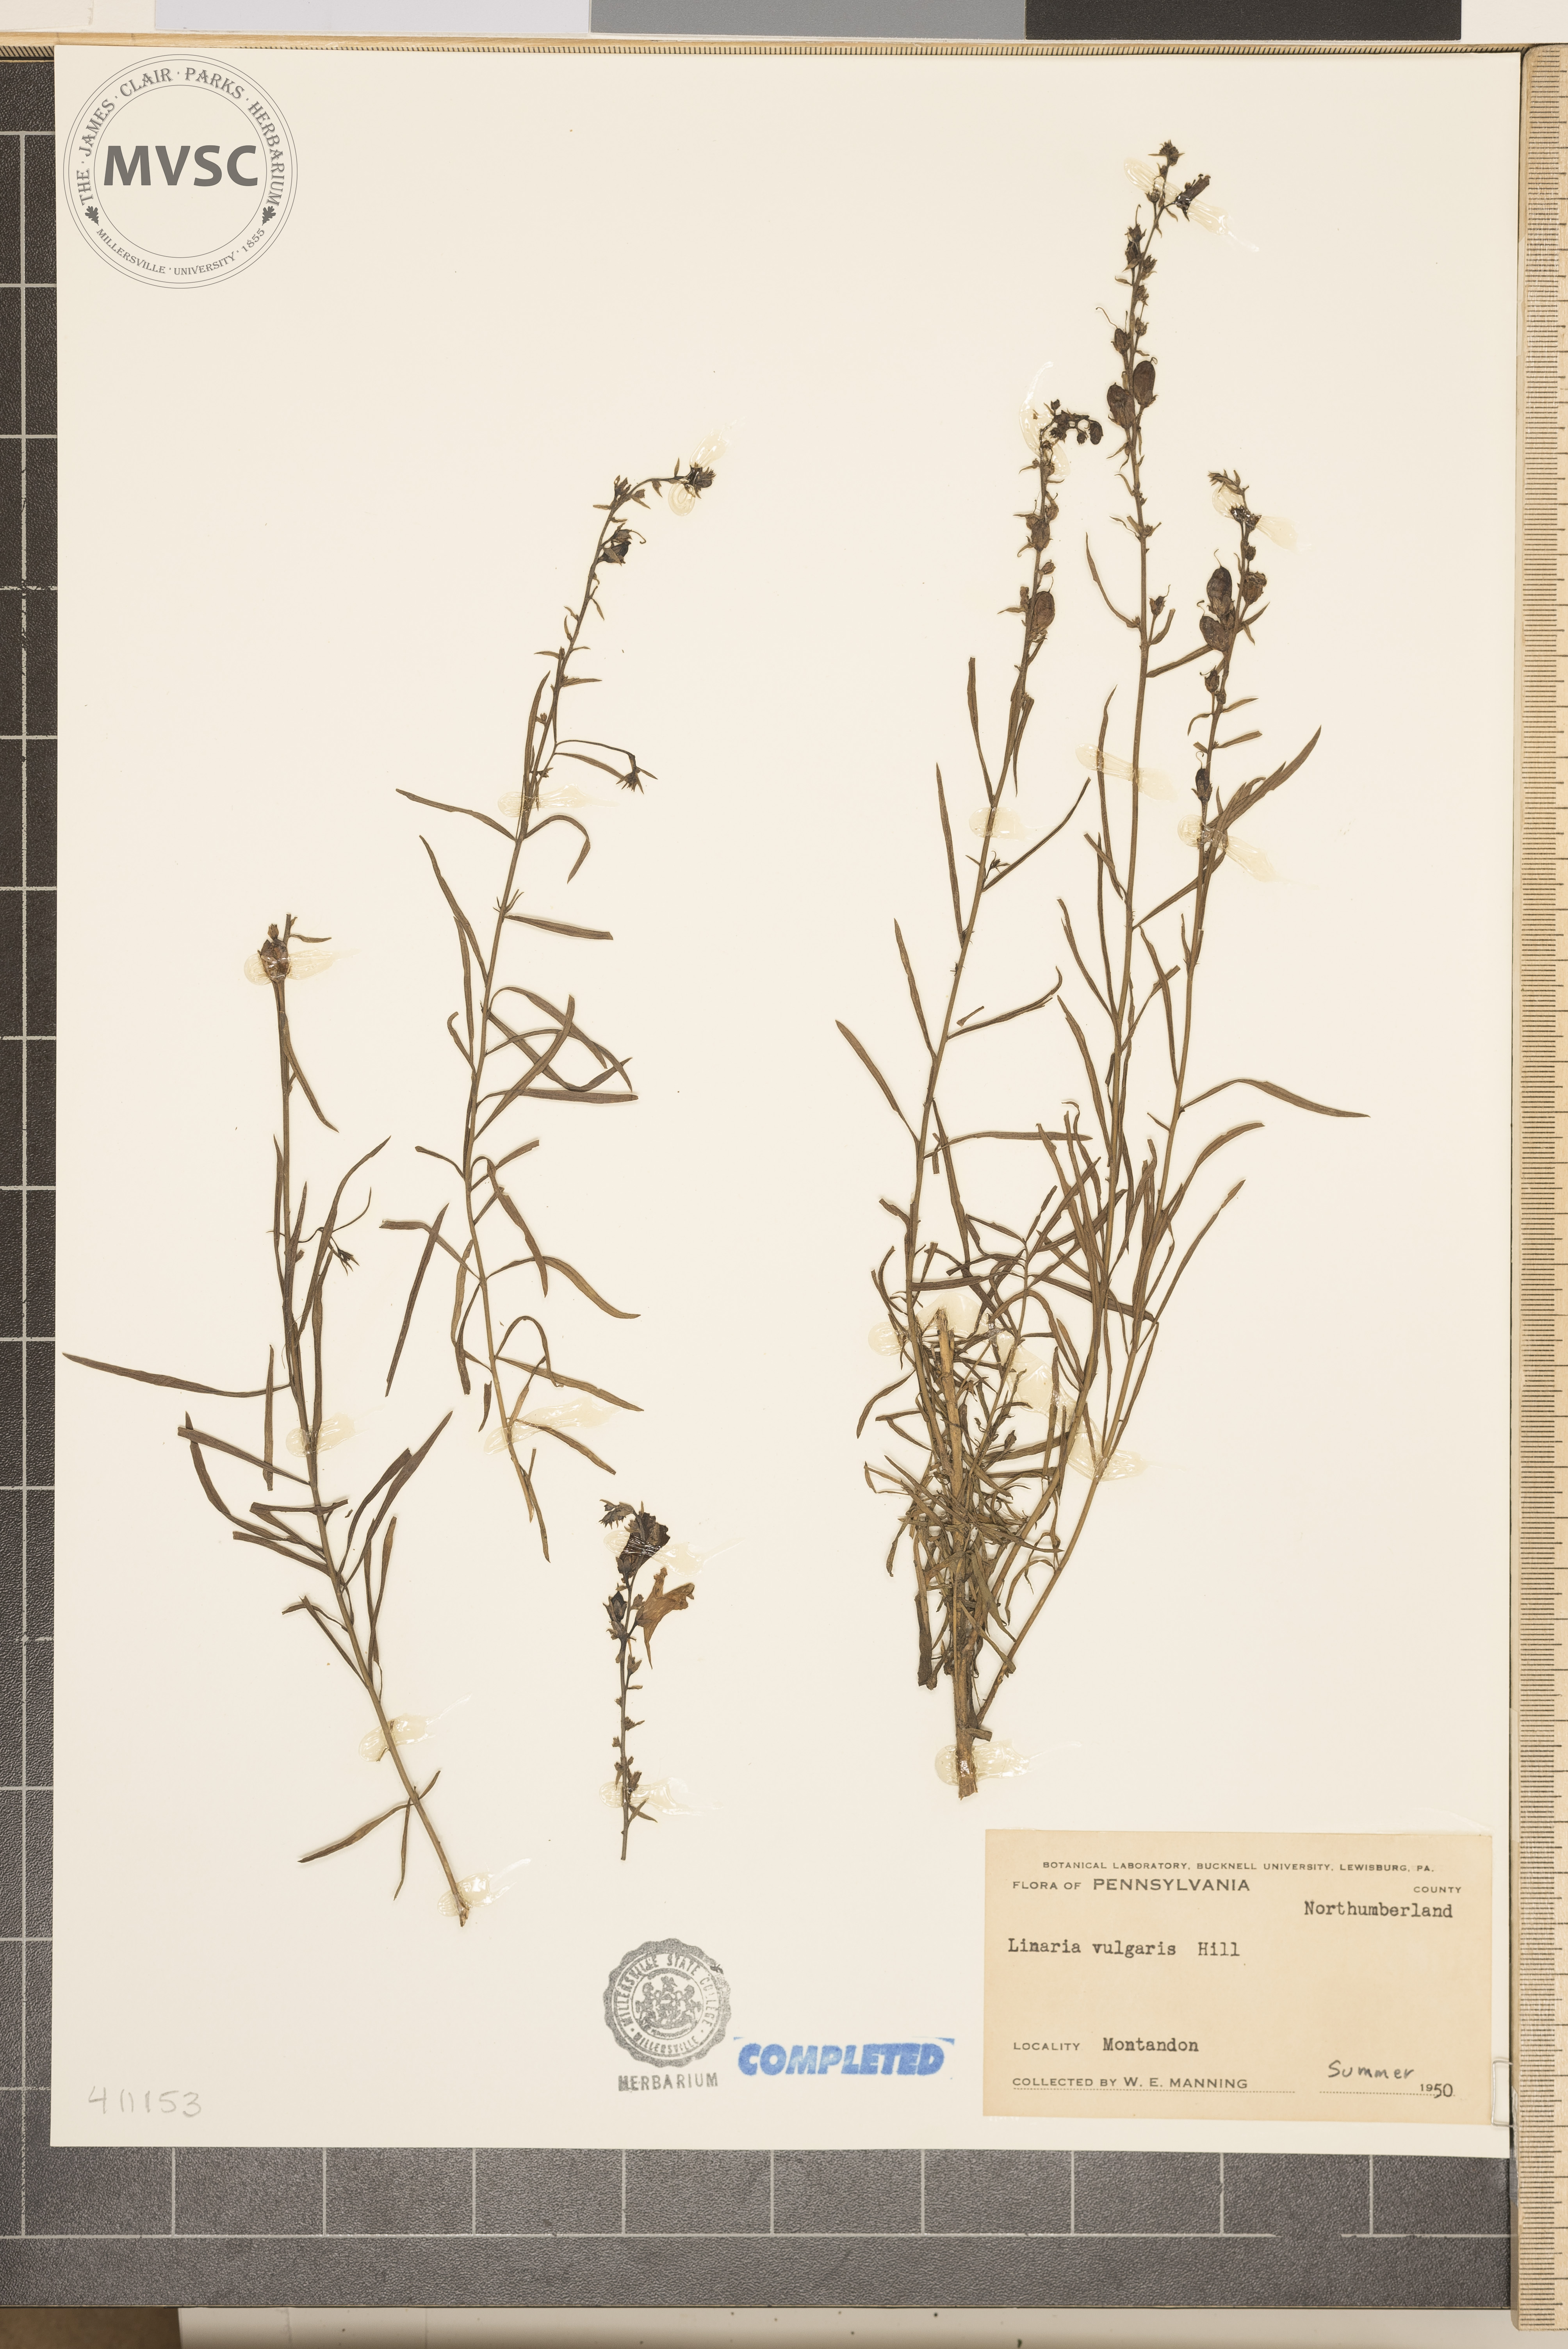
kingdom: Plantae
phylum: Tracheophyta
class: Magnoliopsida
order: Lamiales
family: Plantaginaceae
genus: Linaria
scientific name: Linaria vulgaris
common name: Butter and eggs
